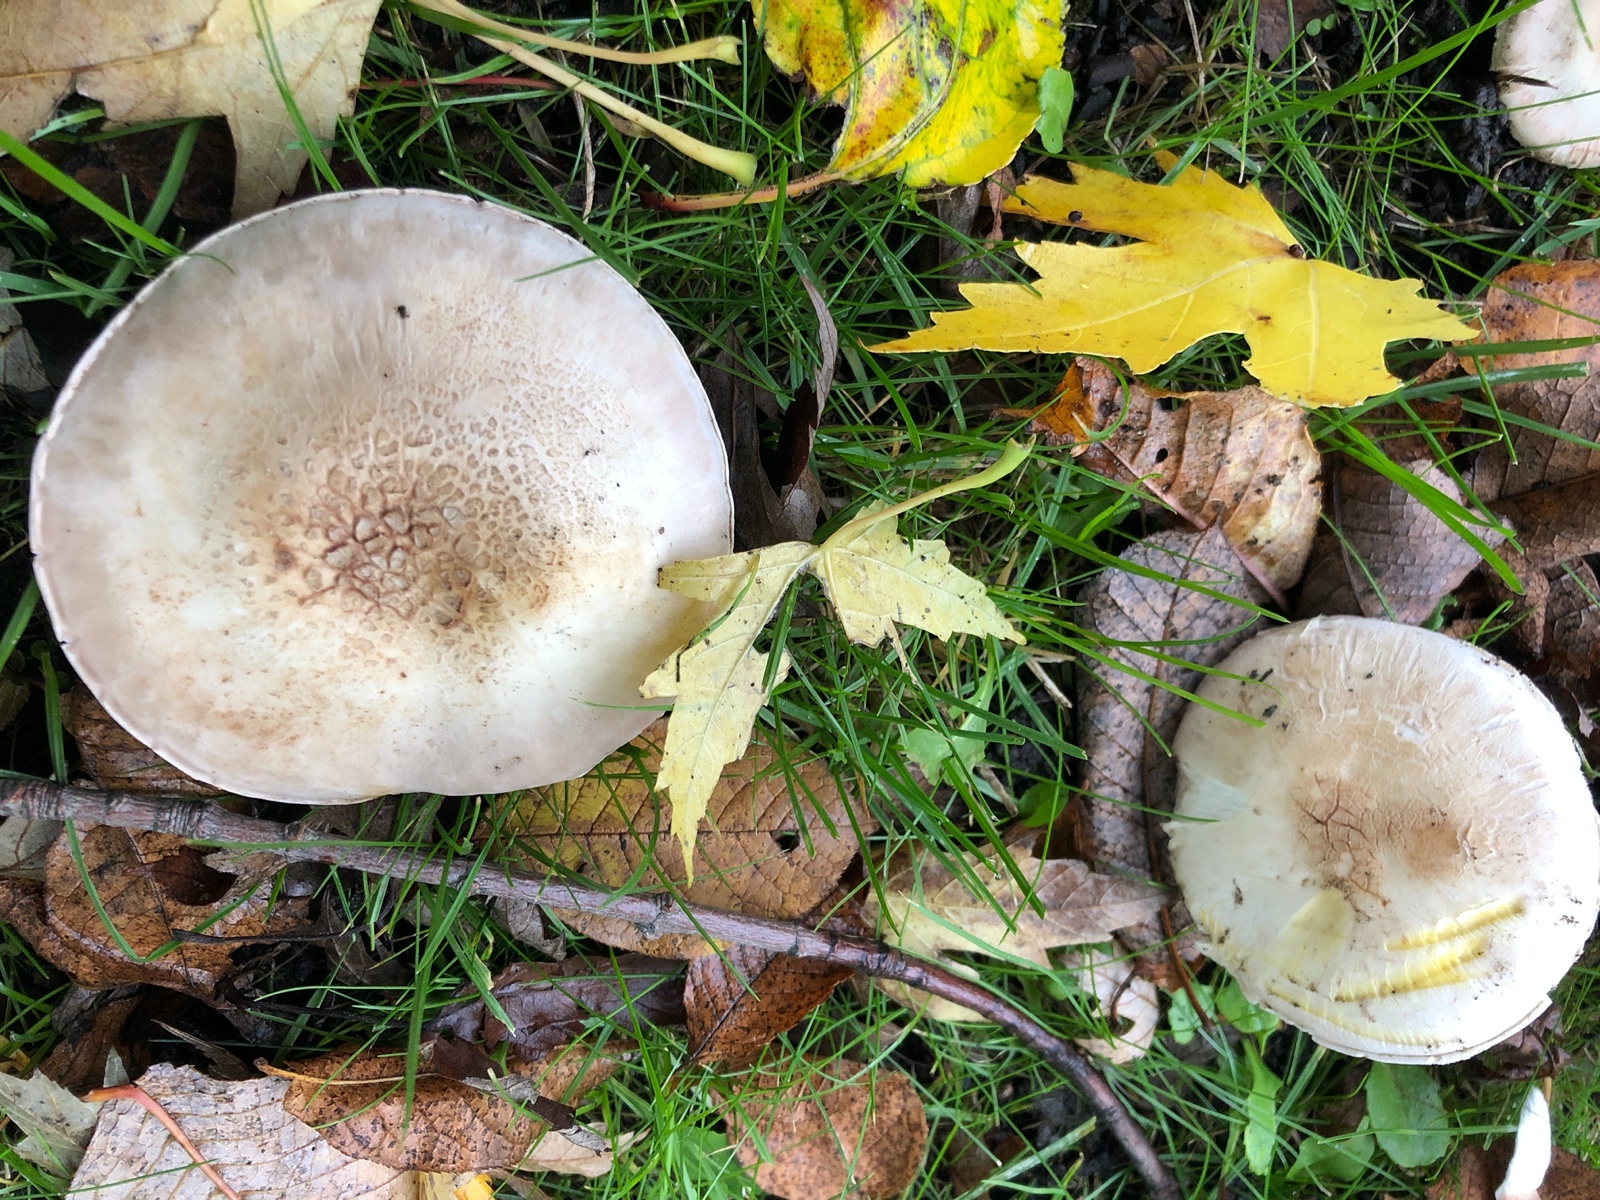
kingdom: Fungi
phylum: Basidiomycota
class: Agaricomycetes
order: Agaricales
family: Agaricaceae
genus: Agaricus
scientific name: Agaricus xanthodermus
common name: karbol-champignon
